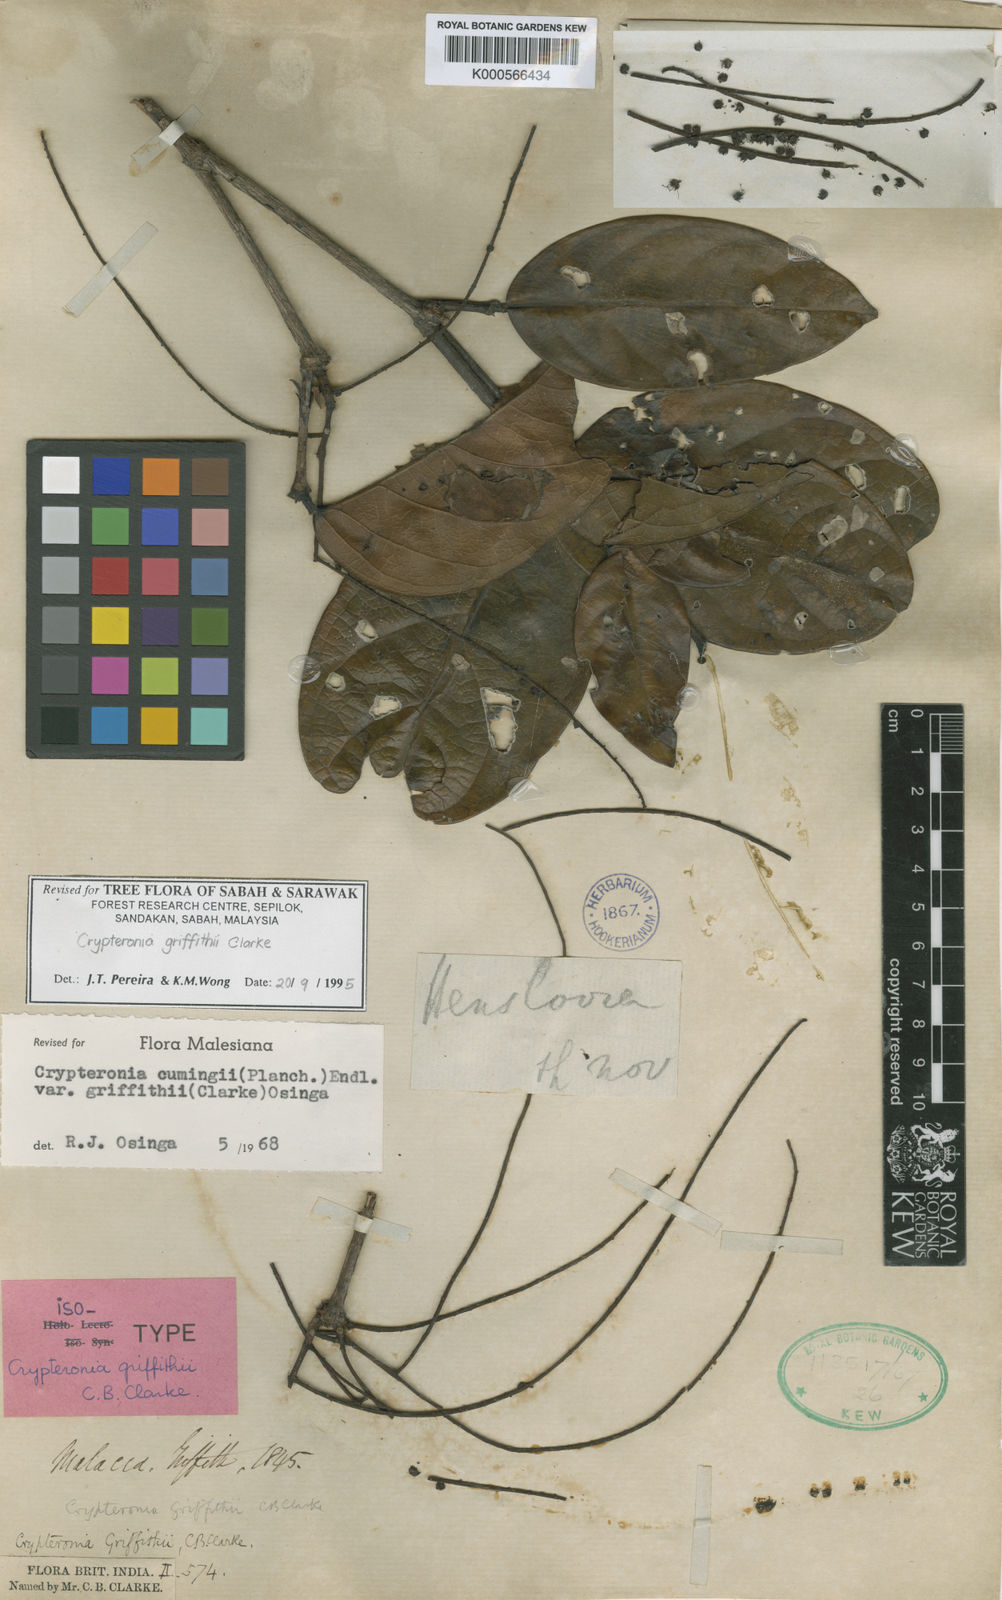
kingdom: Plantae
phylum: Tracheophyta
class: Magnoliopsida
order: Myrtales
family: Crypteroniaceae
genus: Crypteronia
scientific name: Crypteronia griffithii
